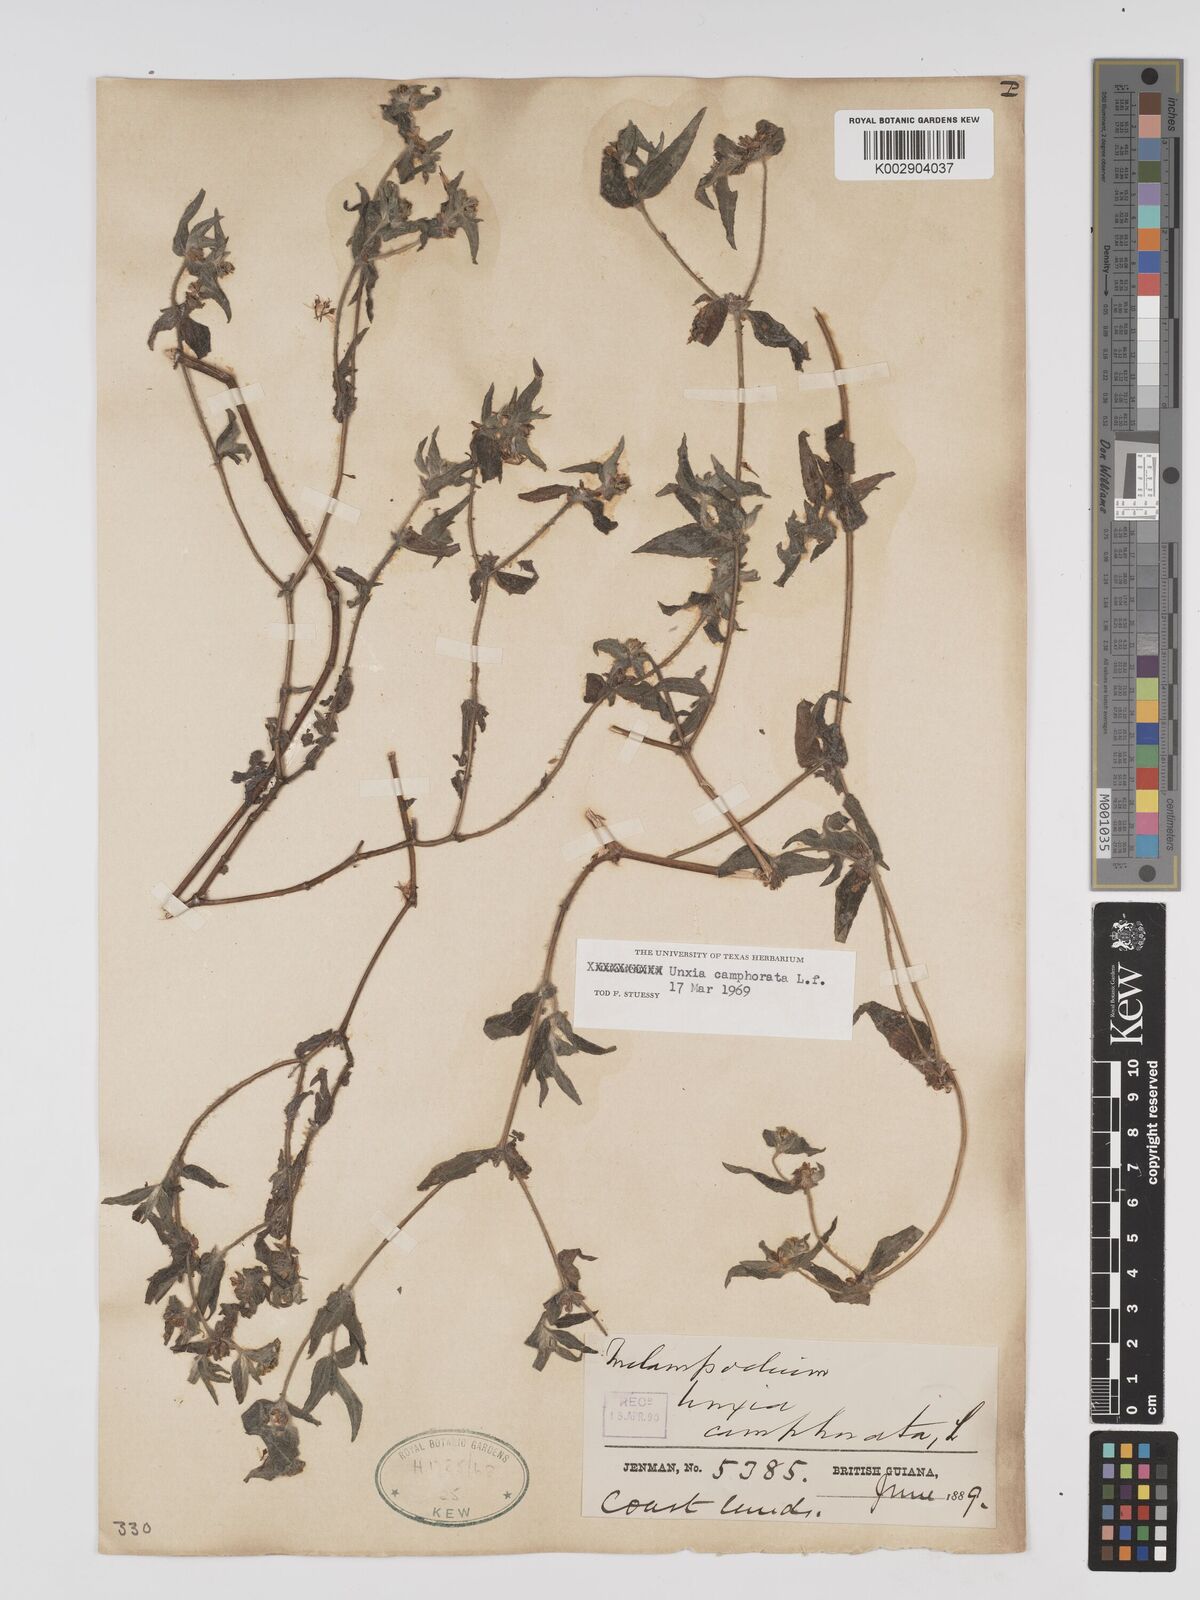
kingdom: Plantae
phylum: Tracheophyta
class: Magnoliopsida
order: Asterales
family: Asteraceae
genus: Unxia
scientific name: Unxia camphorata
